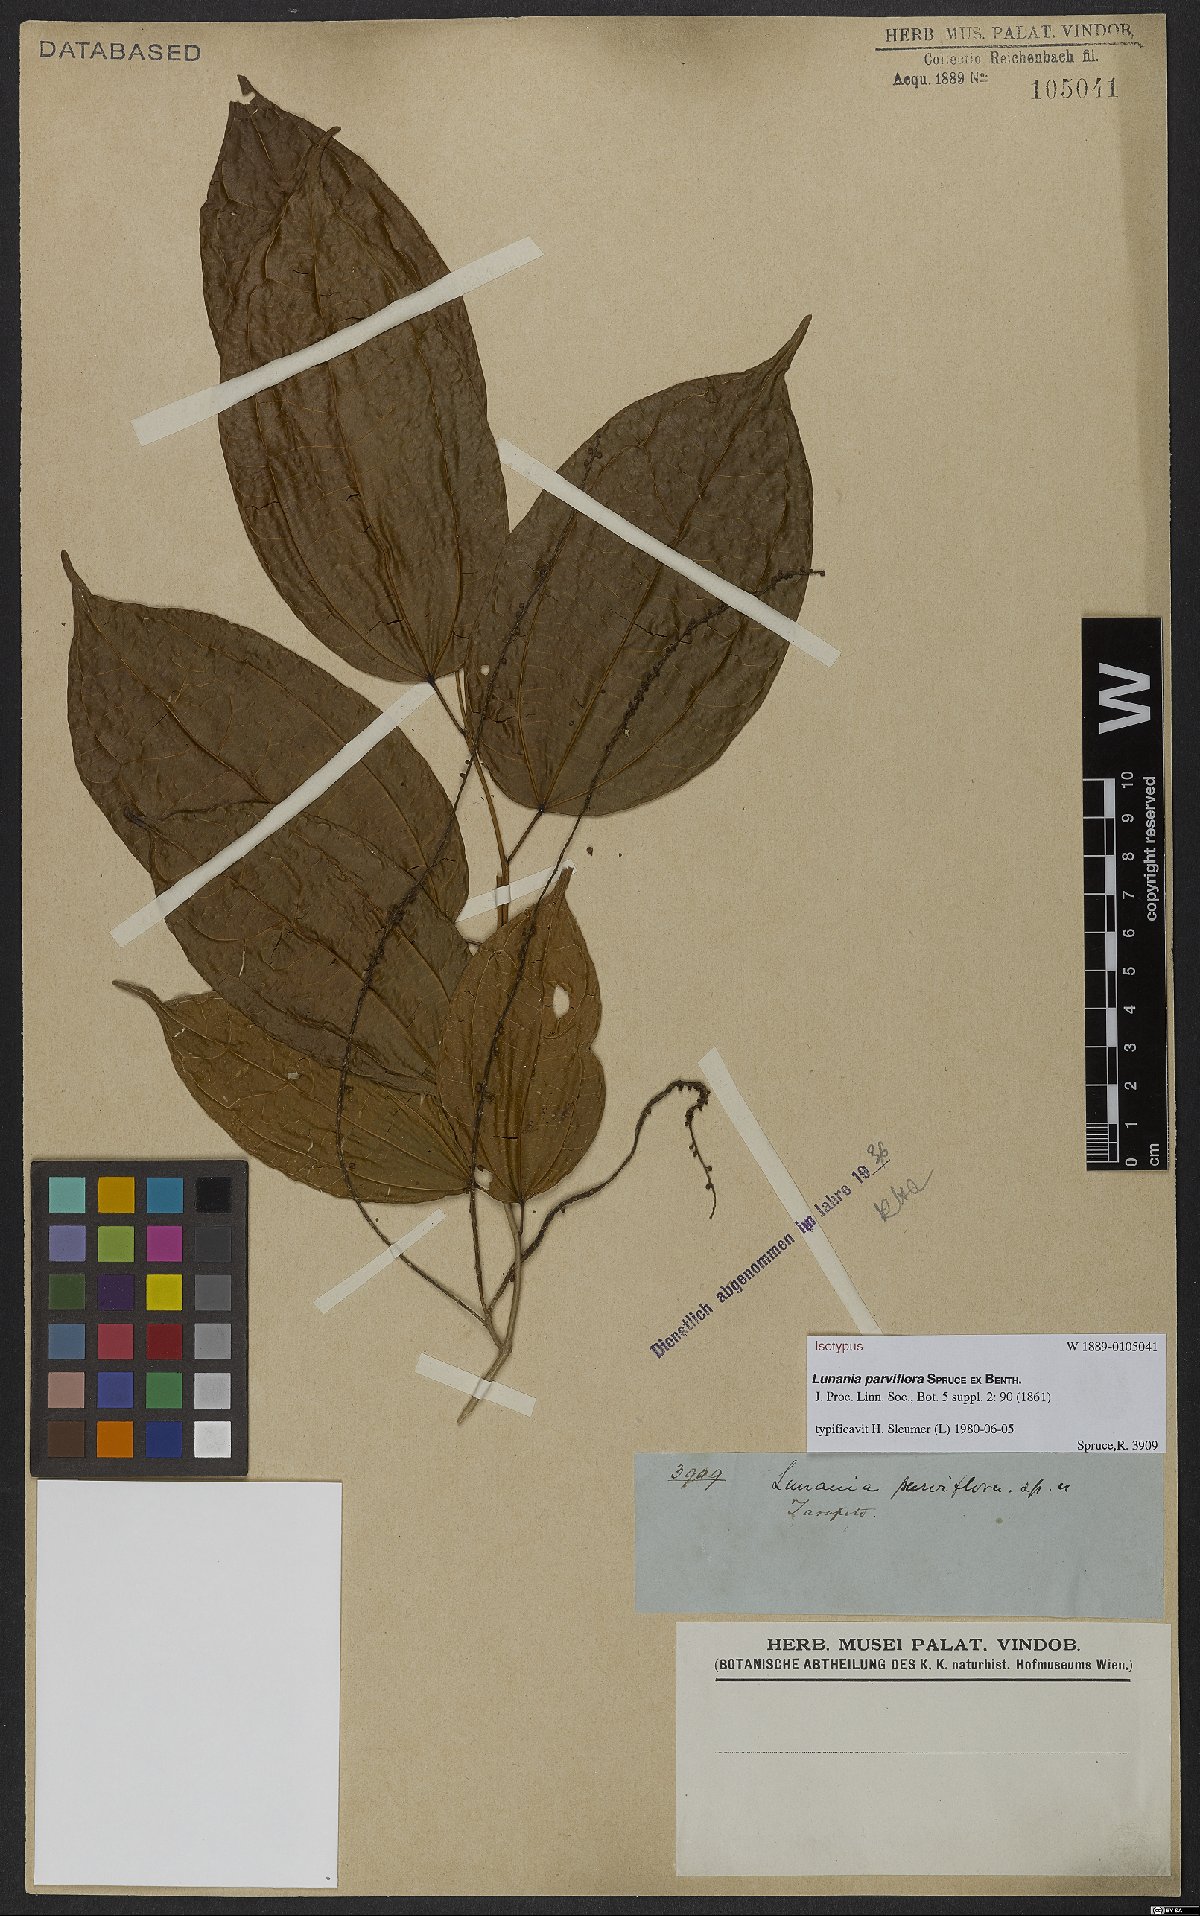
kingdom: Plantae
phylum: Tracheophyta
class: Magnoliopsida
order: Malpighiales
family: Salicaceae
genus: Lunania
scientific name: Lunania parviflora
